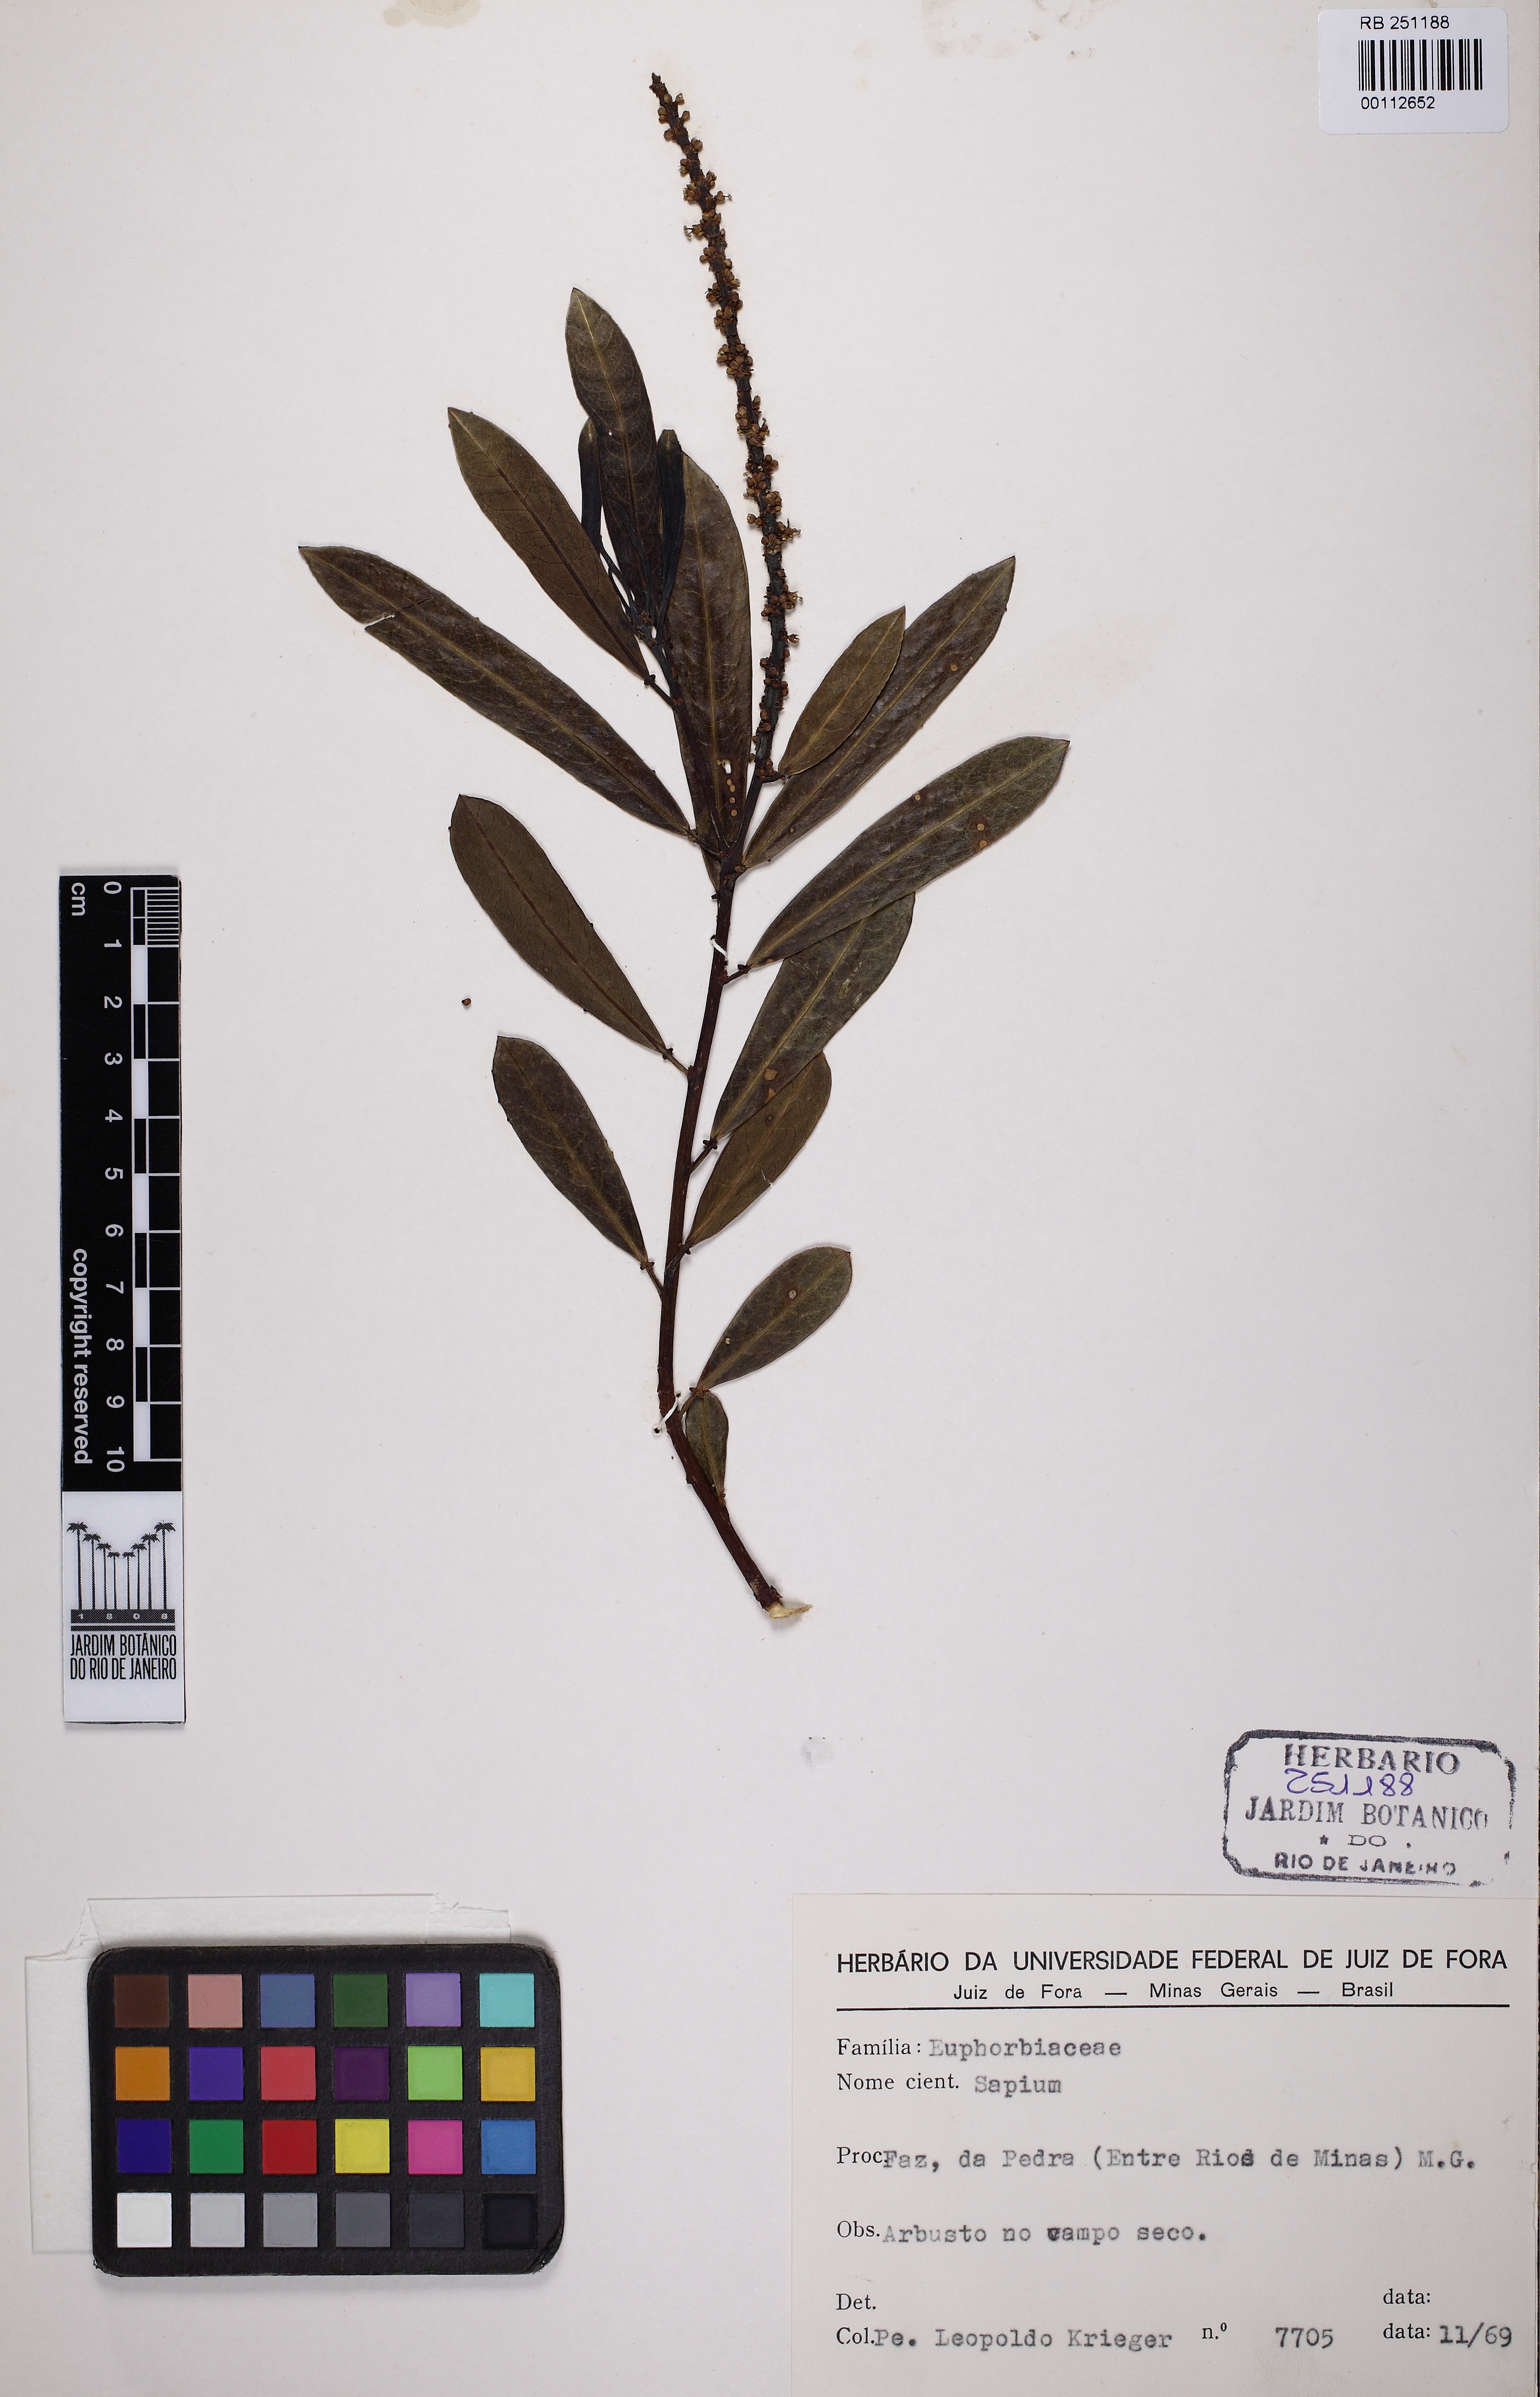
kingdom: Plantae
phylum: Tracheophyta
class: Magnoliopsida
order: Malpighiales
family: Euphorbiaceae
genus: Sapium
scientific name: Sapium
